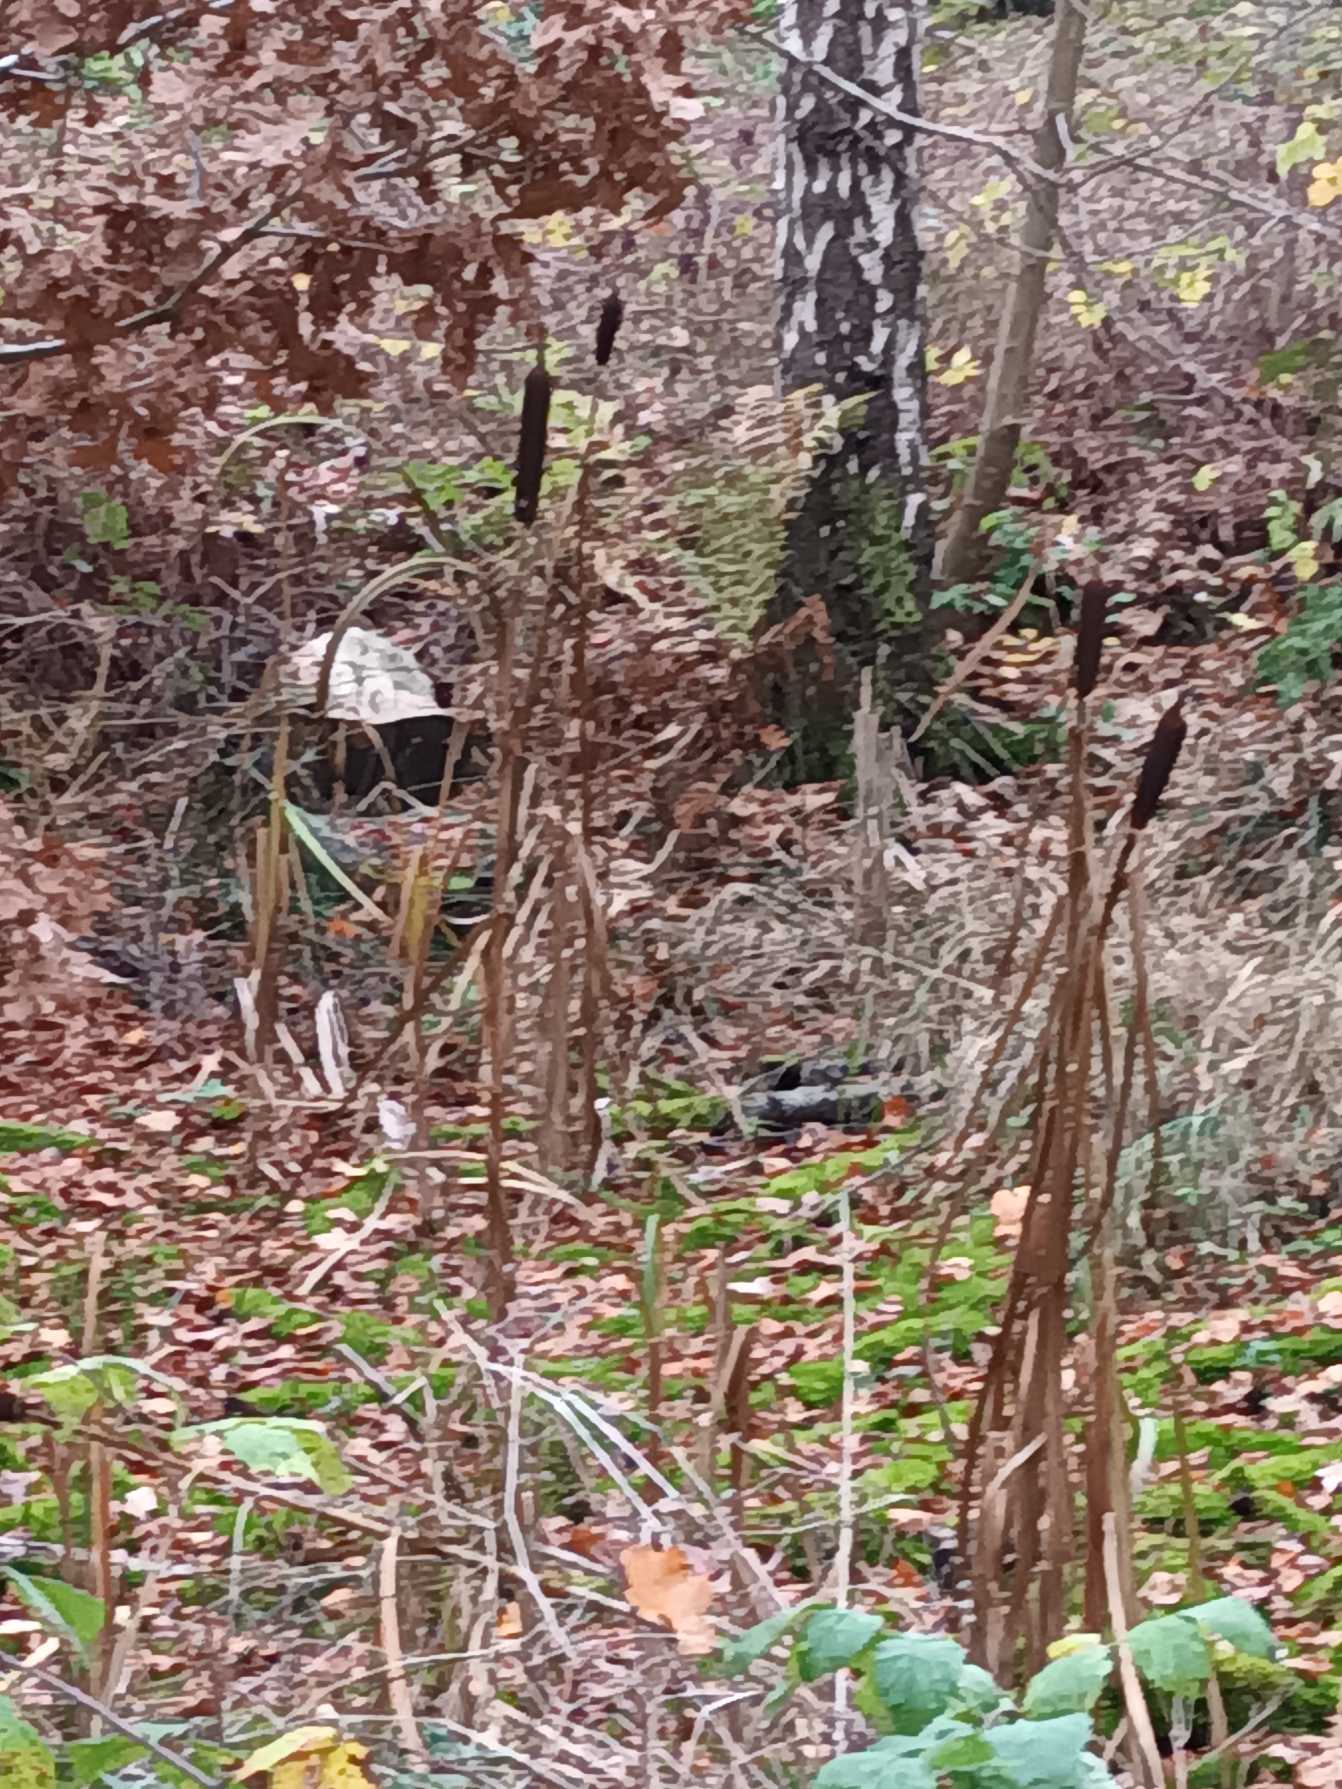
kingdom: Plantae
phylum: Tracheophyta
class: Liliopsida
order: Poales
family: Typhaceae
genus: Typha
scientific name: Typha latifolia
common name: Bredbladet dunhammer
